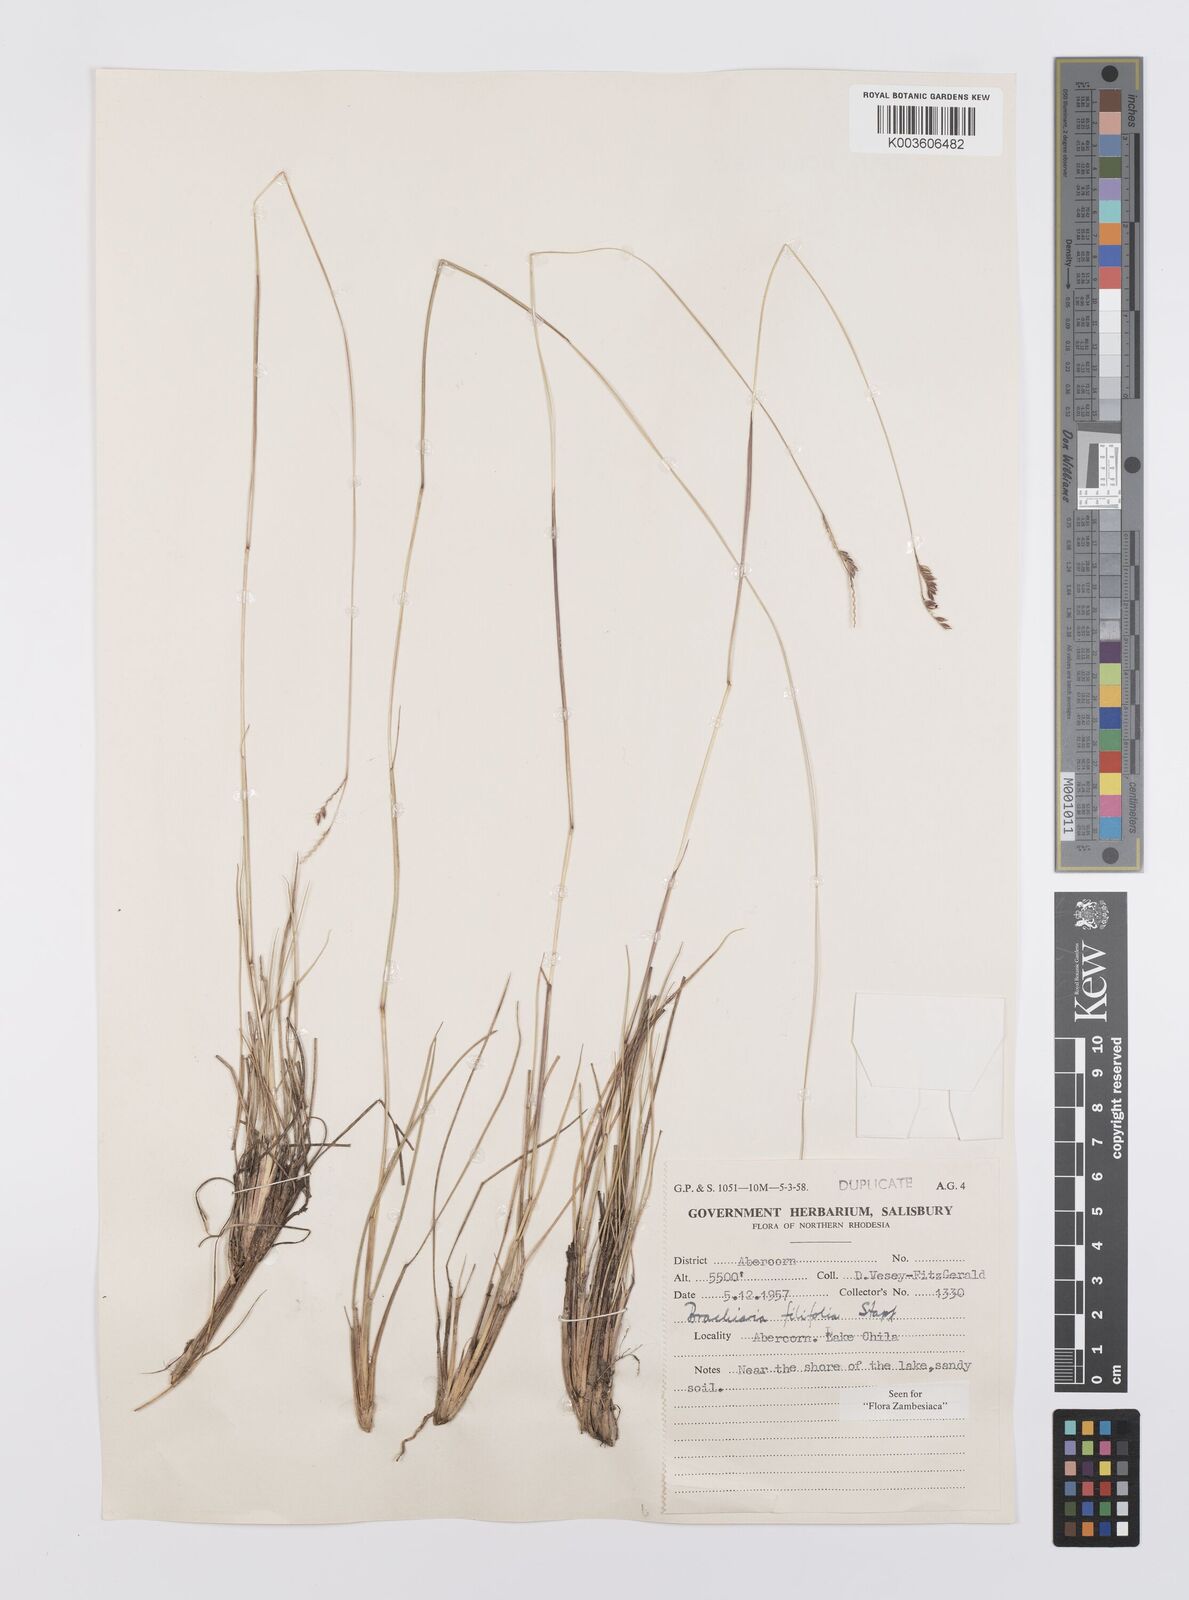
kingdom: Plantae
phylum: Tracheophyta
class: Liliopsida
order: Poales
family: Poaceae
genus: Urochloa
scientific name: Urochloa subulifolia
